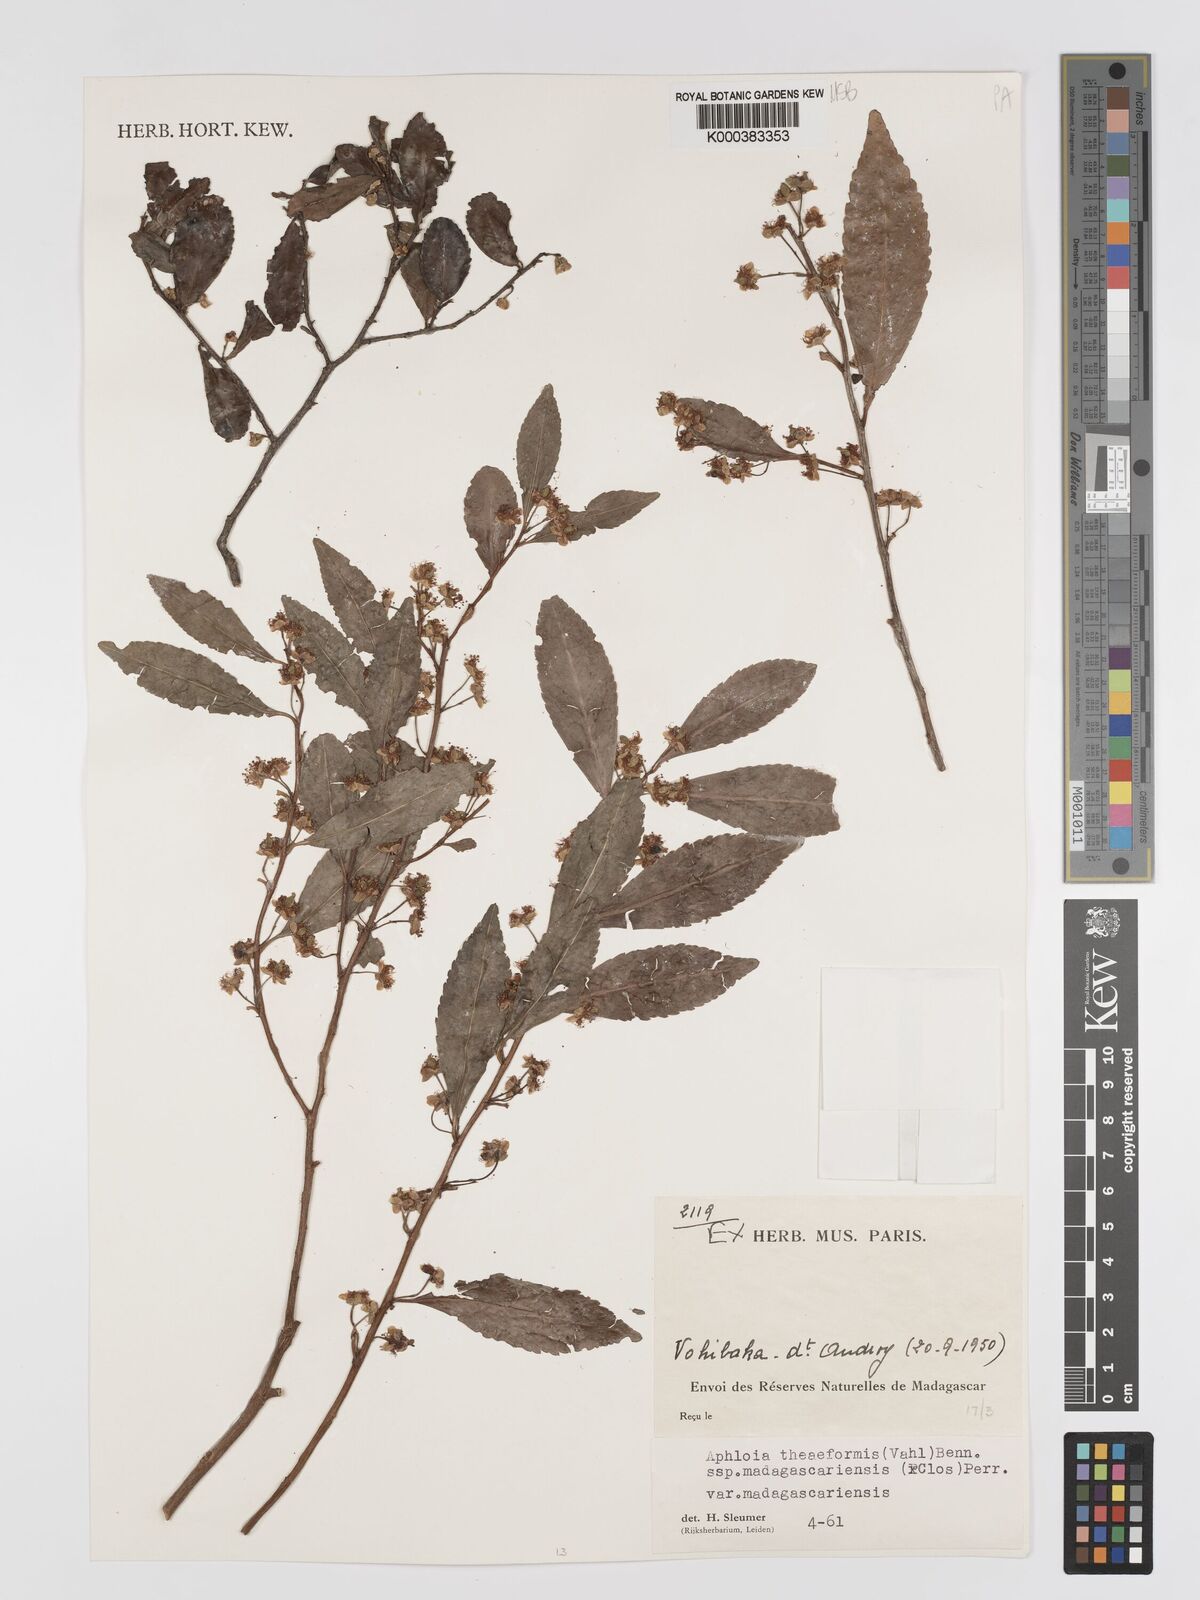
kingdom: Plantae
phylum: Tracheophyta
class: Magnoliopsida
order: Crossosomatales
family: Aphloiaceae
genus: Aphloia
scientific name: Aphloia theiformis
